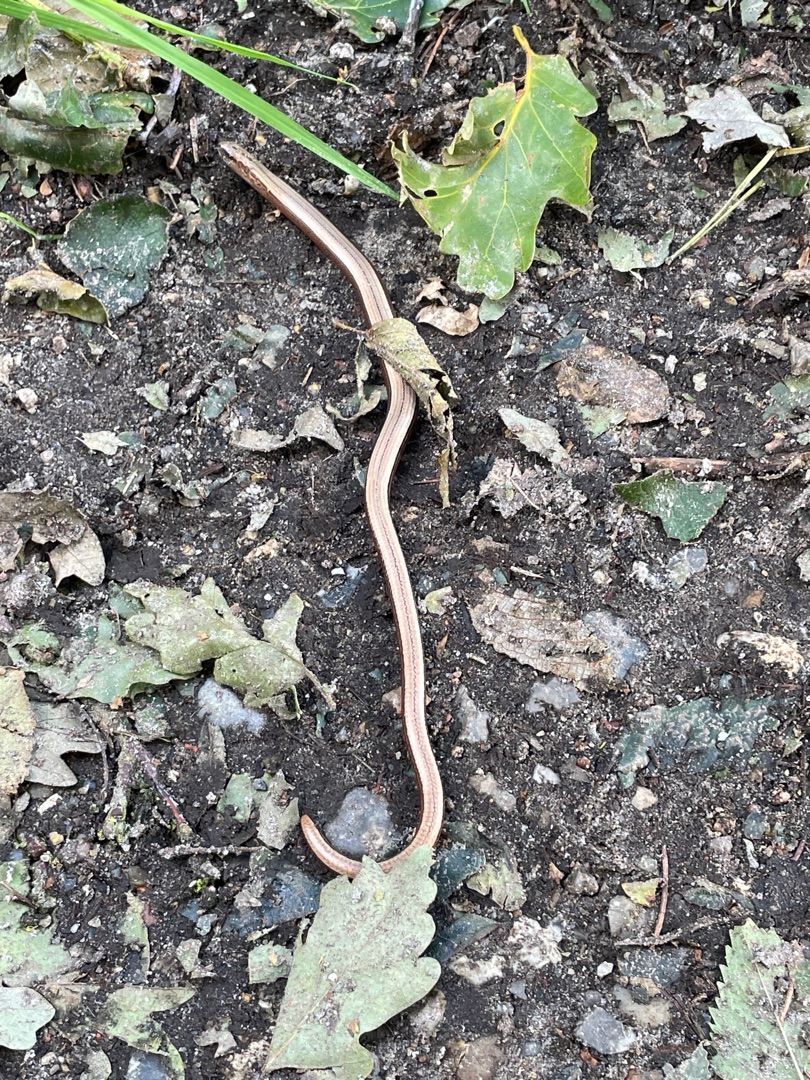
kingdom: Animalia
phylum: Chordata
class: Squamata
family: Anguidae
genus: Anguis
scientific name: Anguis fragilis
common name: Stålorm
